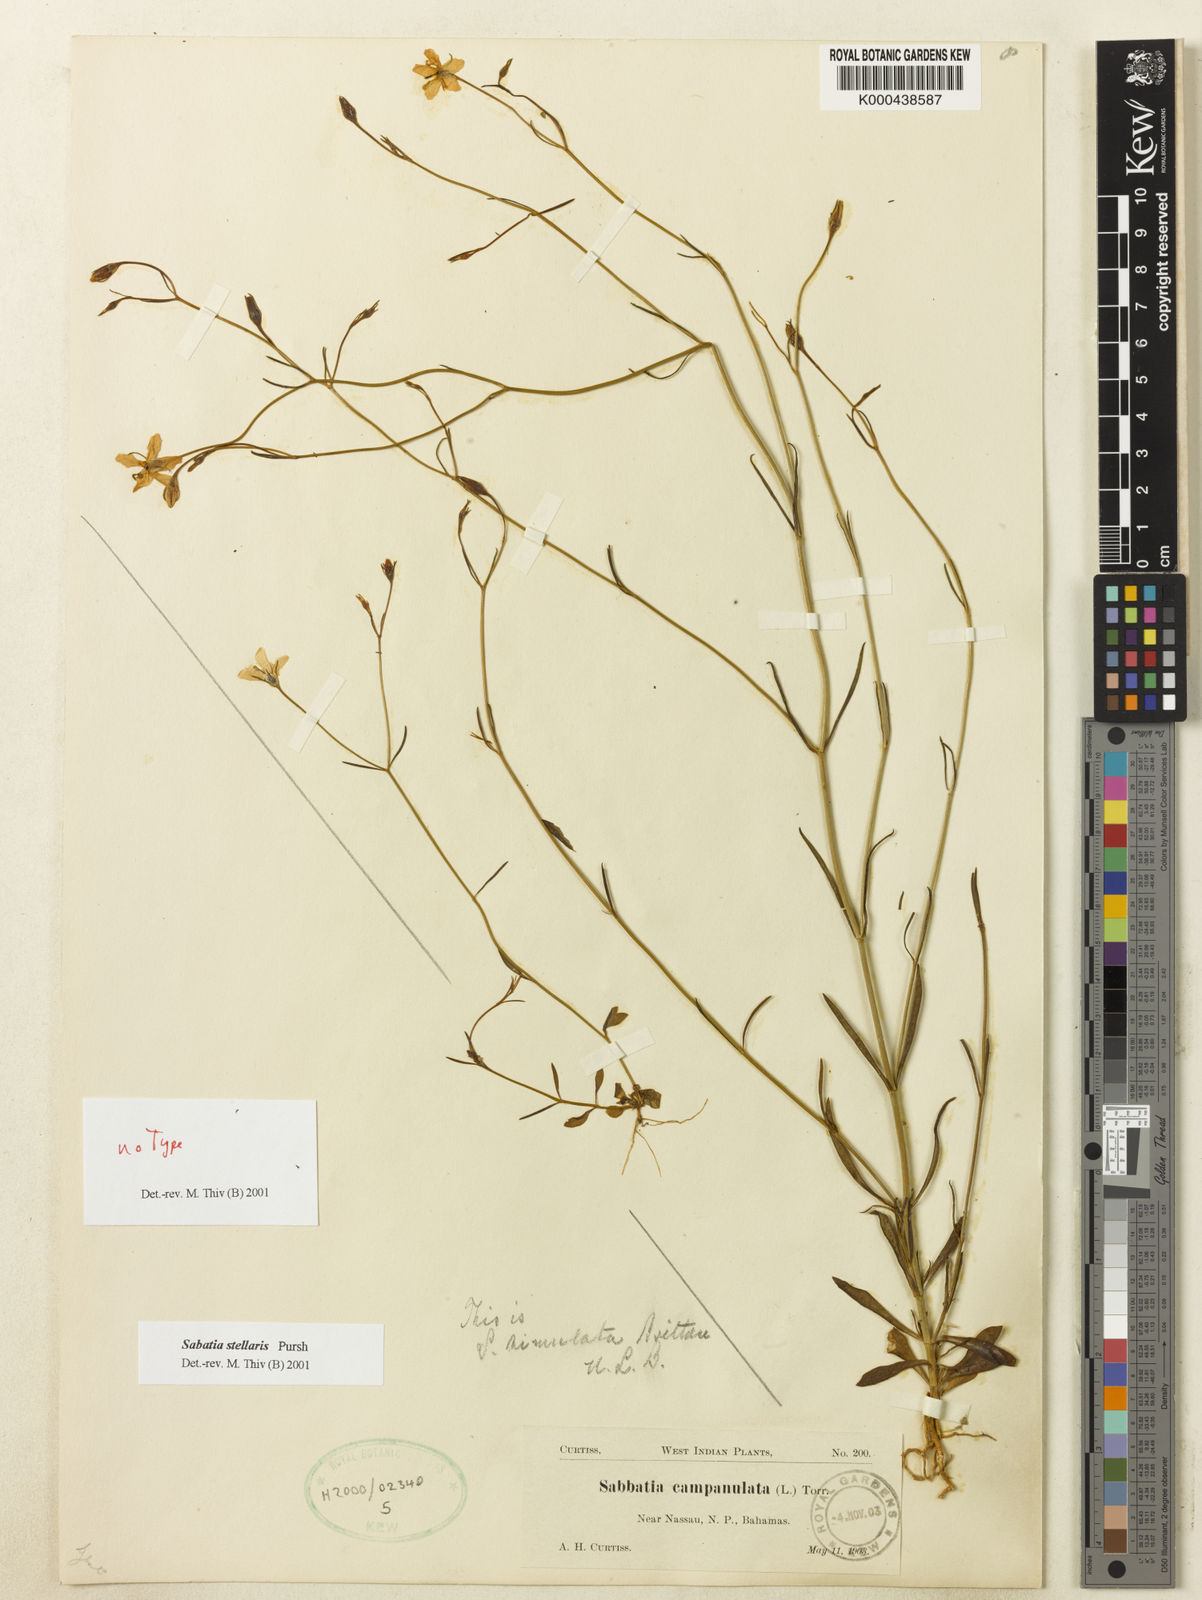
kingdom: Plantae
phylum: Tracheophyta
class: Magnoliopsida
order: Gentianales
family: Gentianaceae
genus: Sabatia
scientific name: Sabatia stellaris
